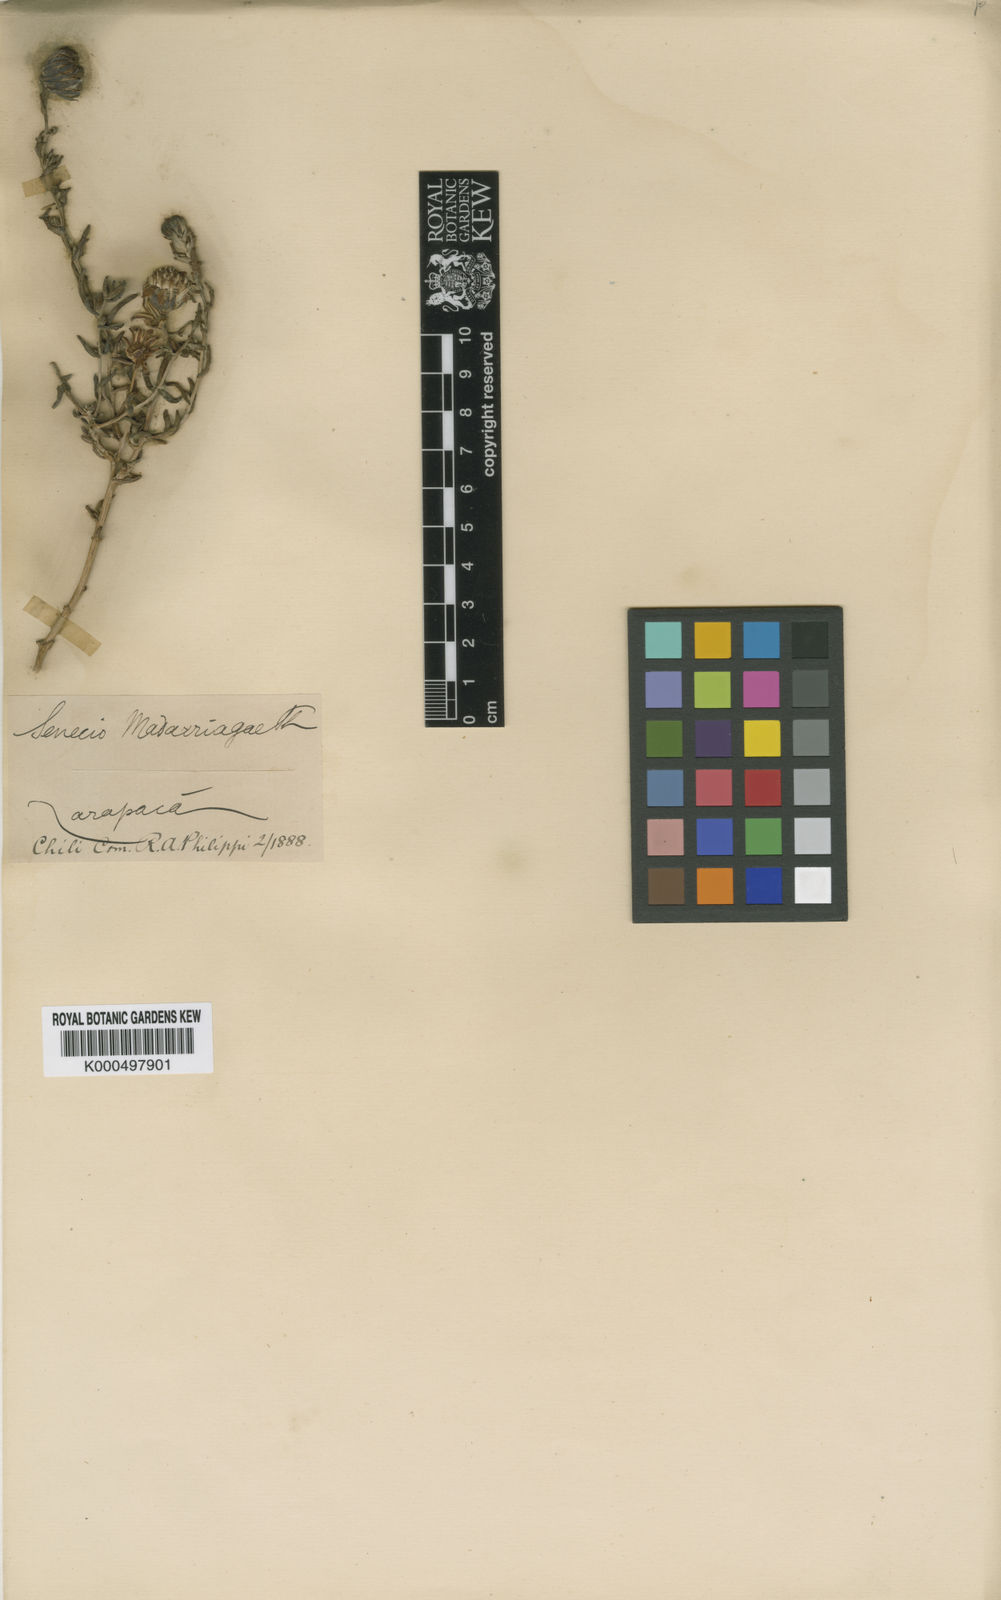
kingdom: Plantae
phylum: Tracheophyta
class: Magnoliopsida
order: Asterales
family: Asteraceae
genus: Senecio
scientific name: Senecio madariagae
